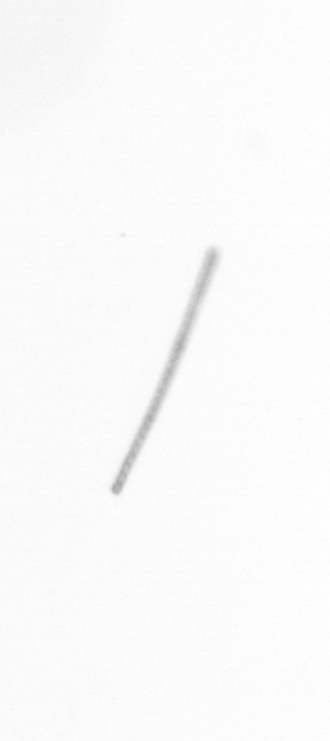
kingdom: Chromista
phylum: Ochrophyta
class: Bacillariophyceae
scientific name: Bacillariophyceae
